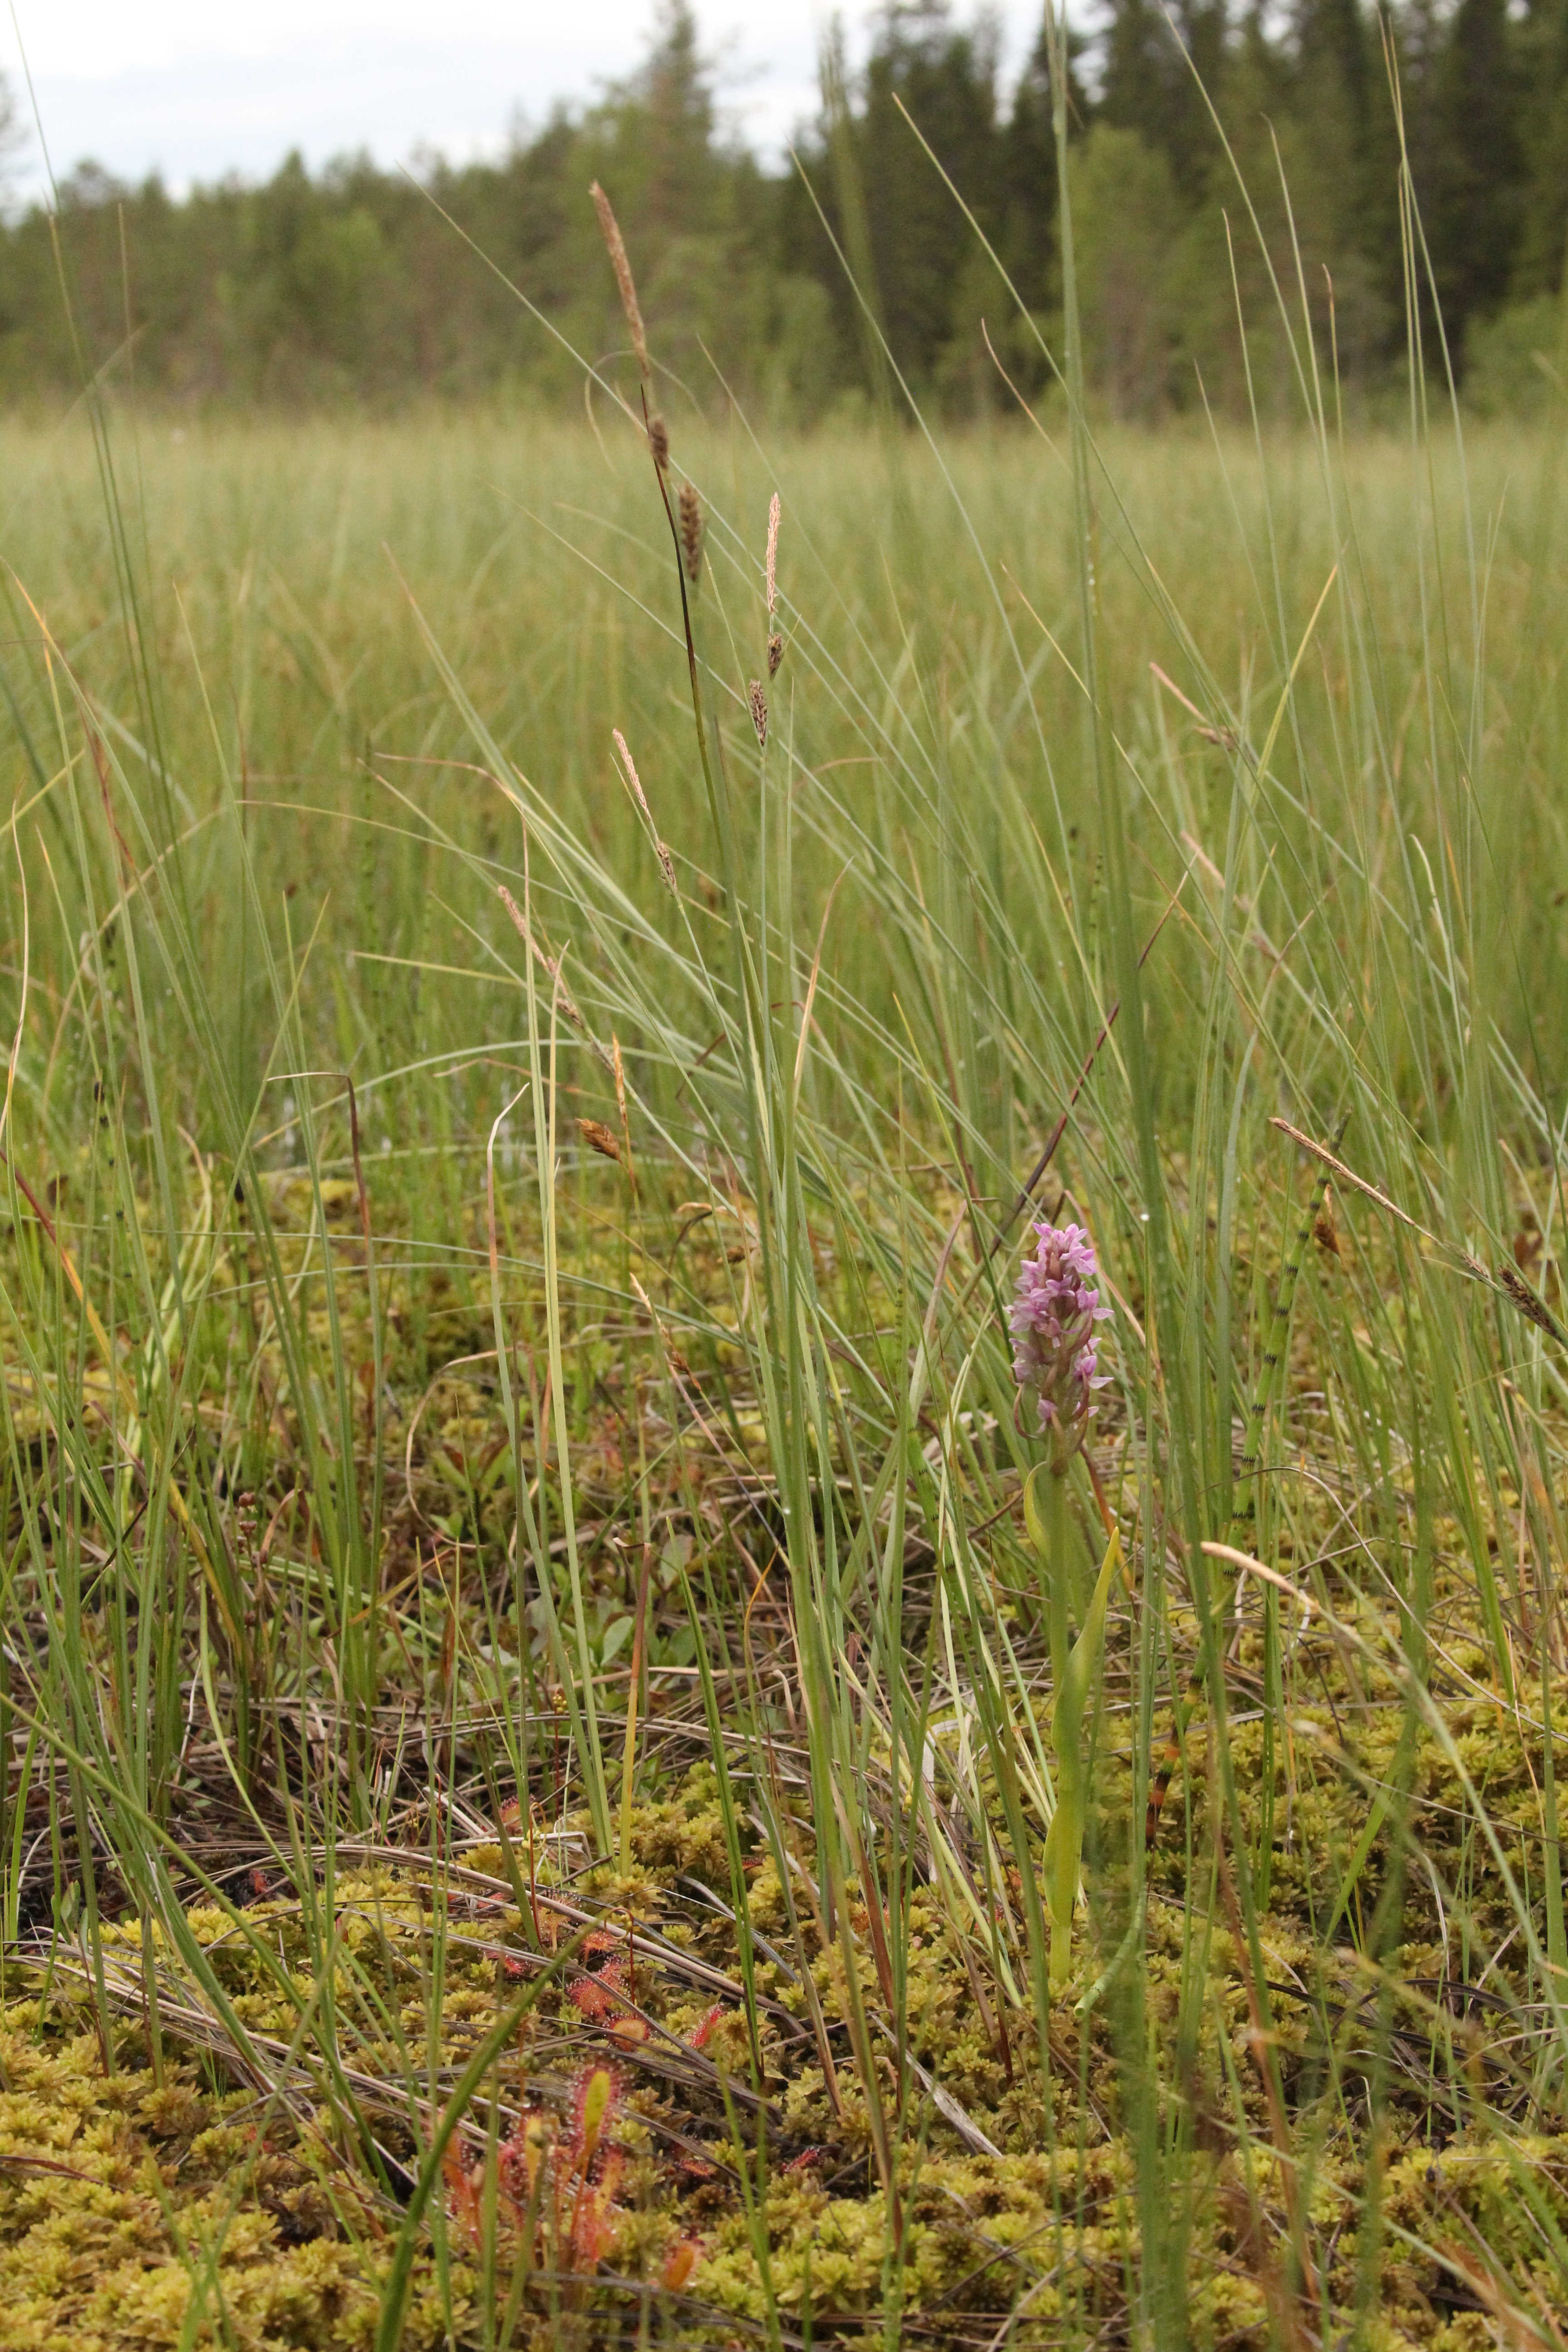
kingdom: Plantae
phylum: Tracheophyta
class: Liliopsida
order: Asparagales
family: Orchidaceae
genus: Dactylorhiza
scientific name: Dactylorhiza incarnata
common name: Early marsh-orchid
